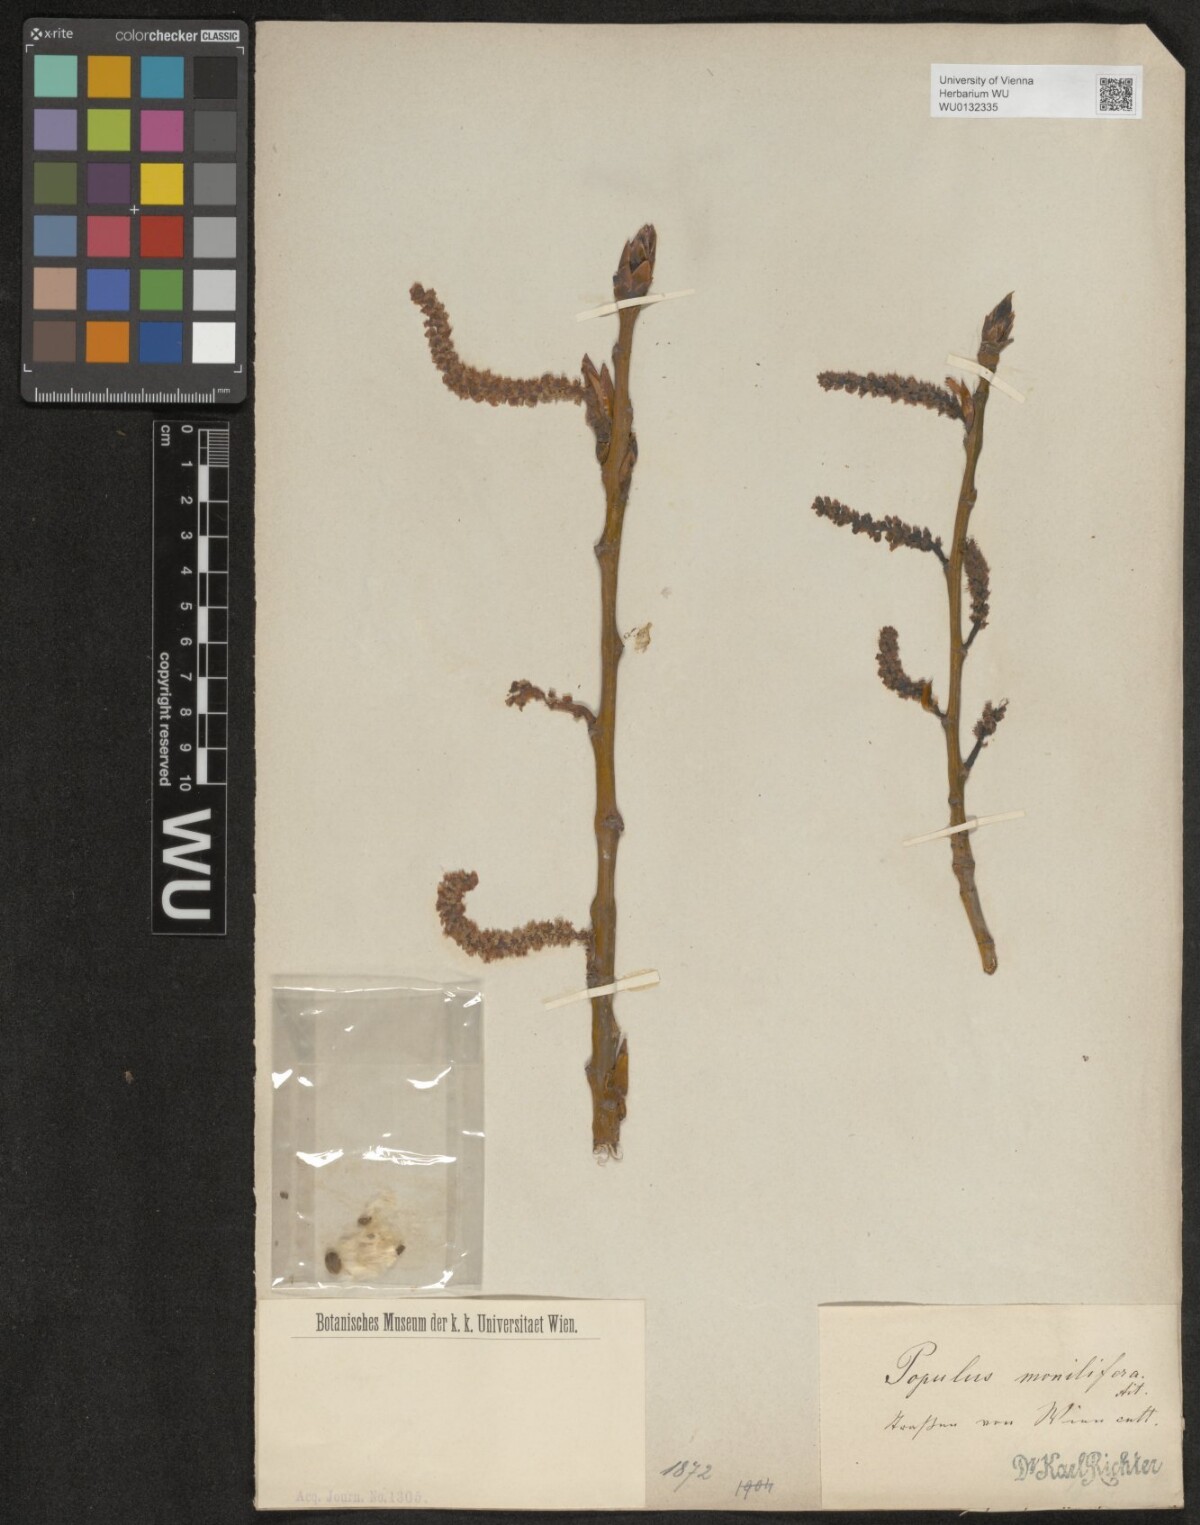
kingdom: Plantae
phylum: Tracheophyta
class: Magnoliopsida
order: Malpighiales
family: Salicaceae
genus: Populus
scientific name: Populus deltoides
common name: Eastern cottonwood
